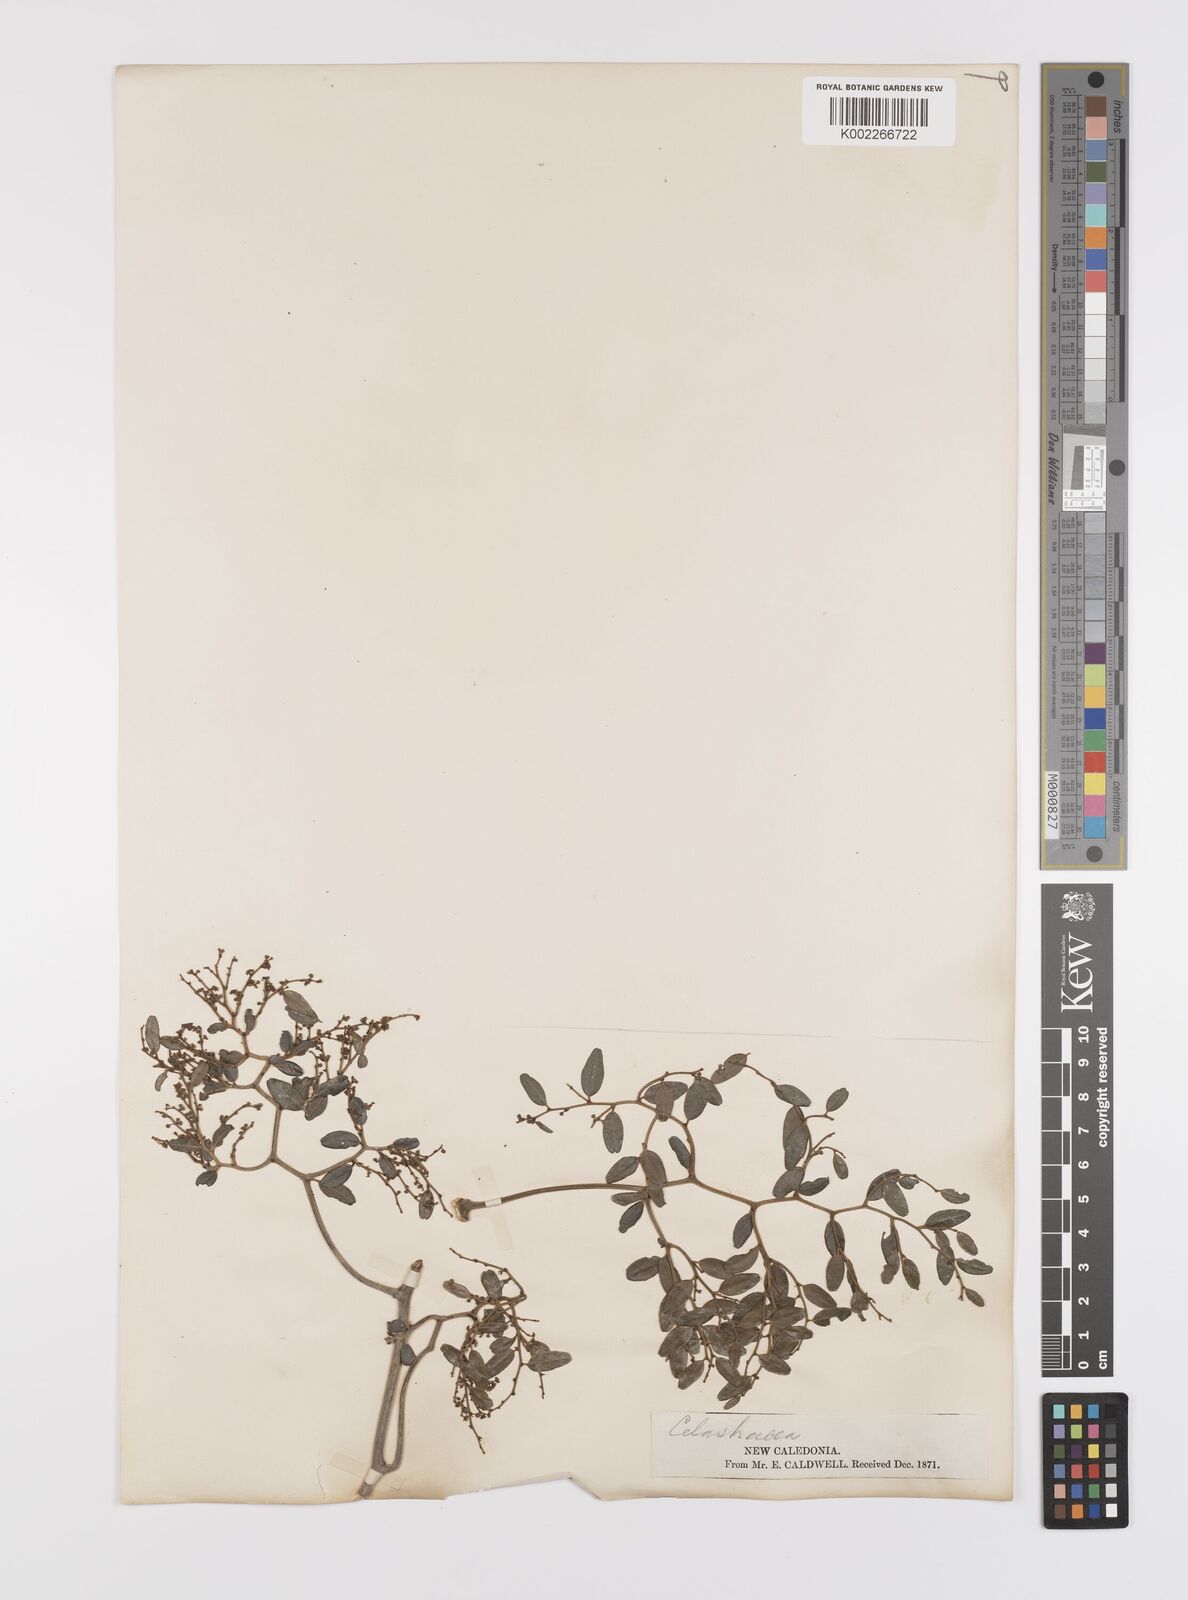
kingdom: Plantae
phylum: Tracheophyta
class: Magnoliopsida
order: Celastrales
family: Celastraceae
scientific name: Celastraceae
